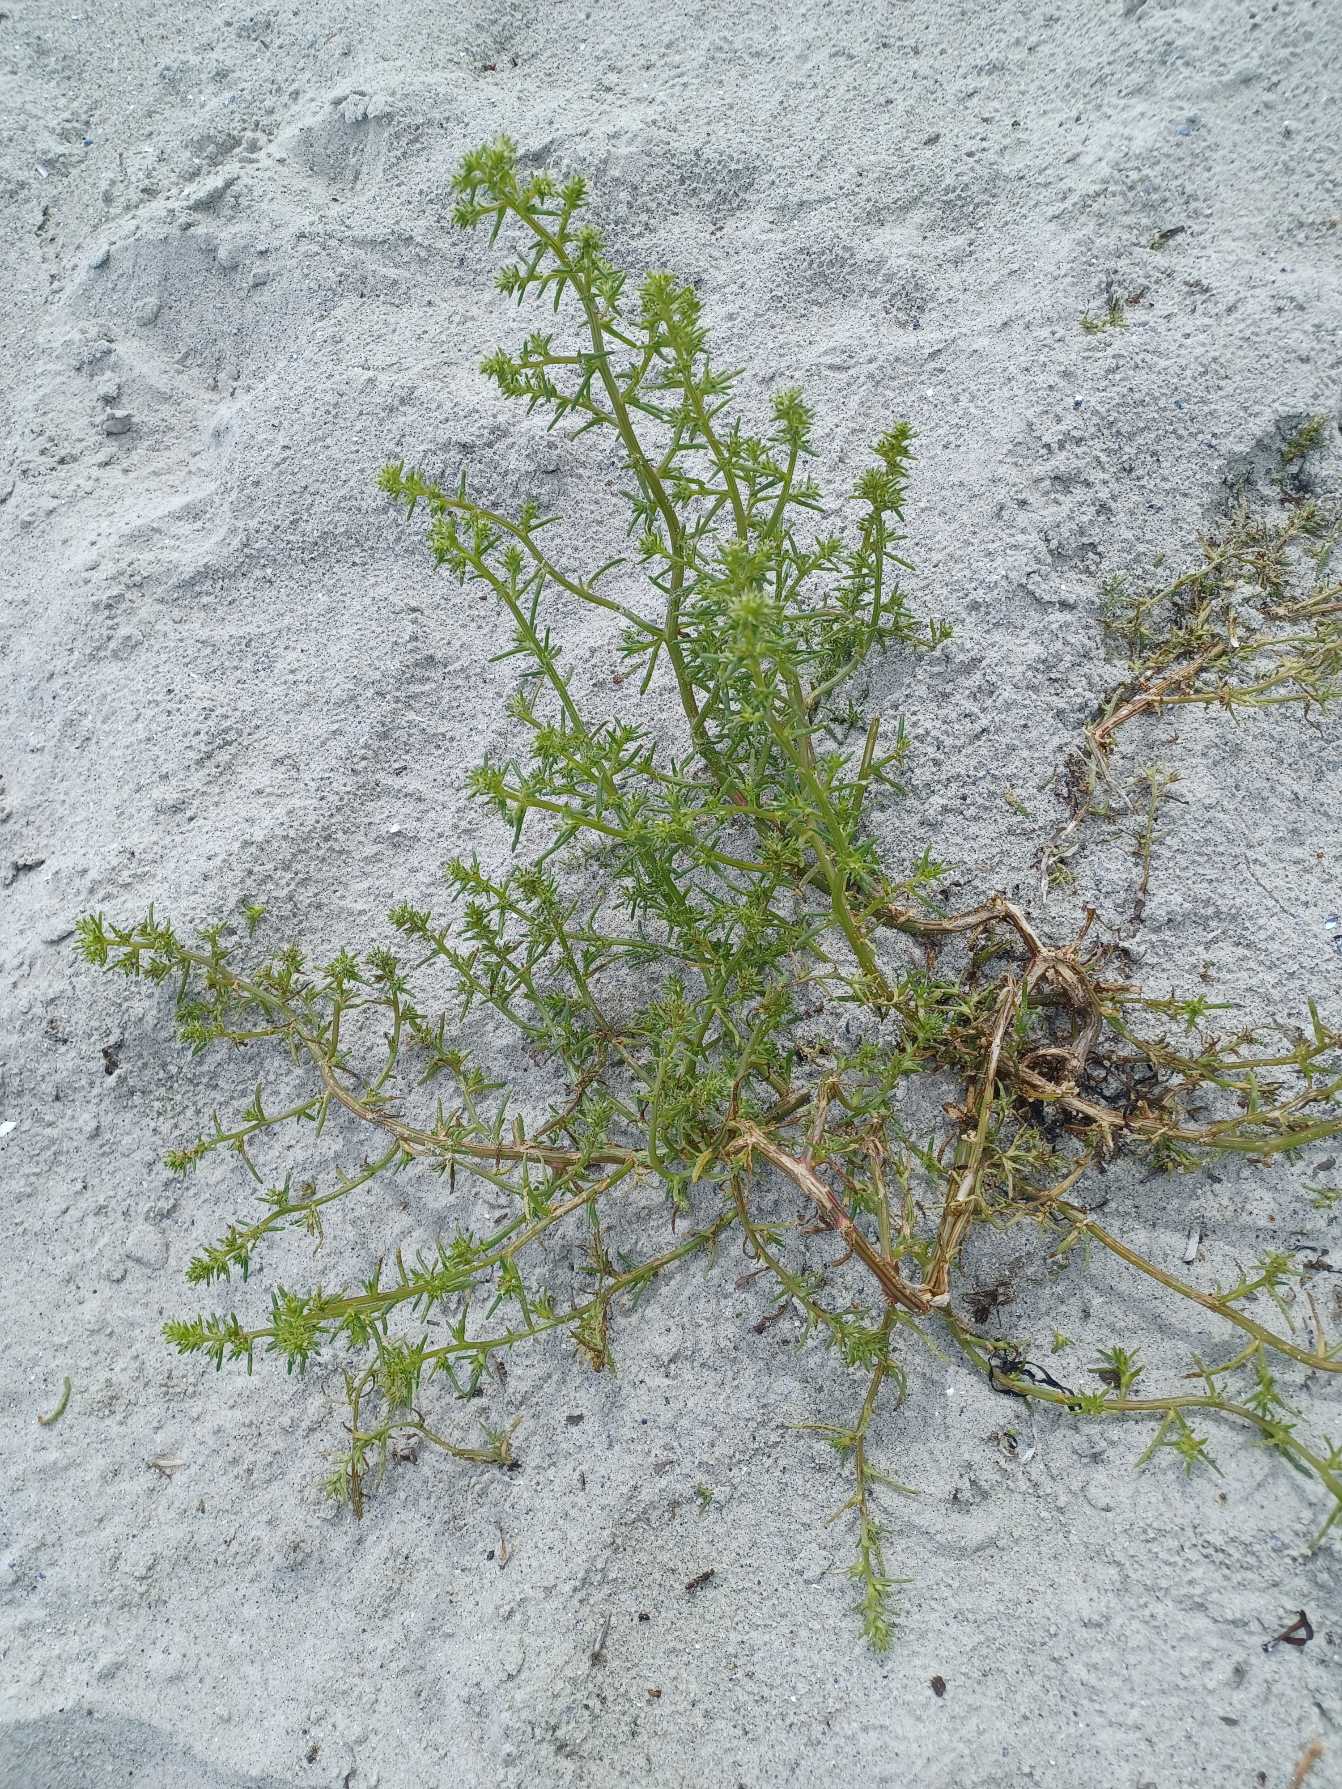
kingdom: Plantae
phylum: Tracheophyta
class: Magnoliopsida
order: Caryophyllales
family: Amaranthaceae
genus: Salsola
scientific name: Salsola kali
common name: Sodaurt
